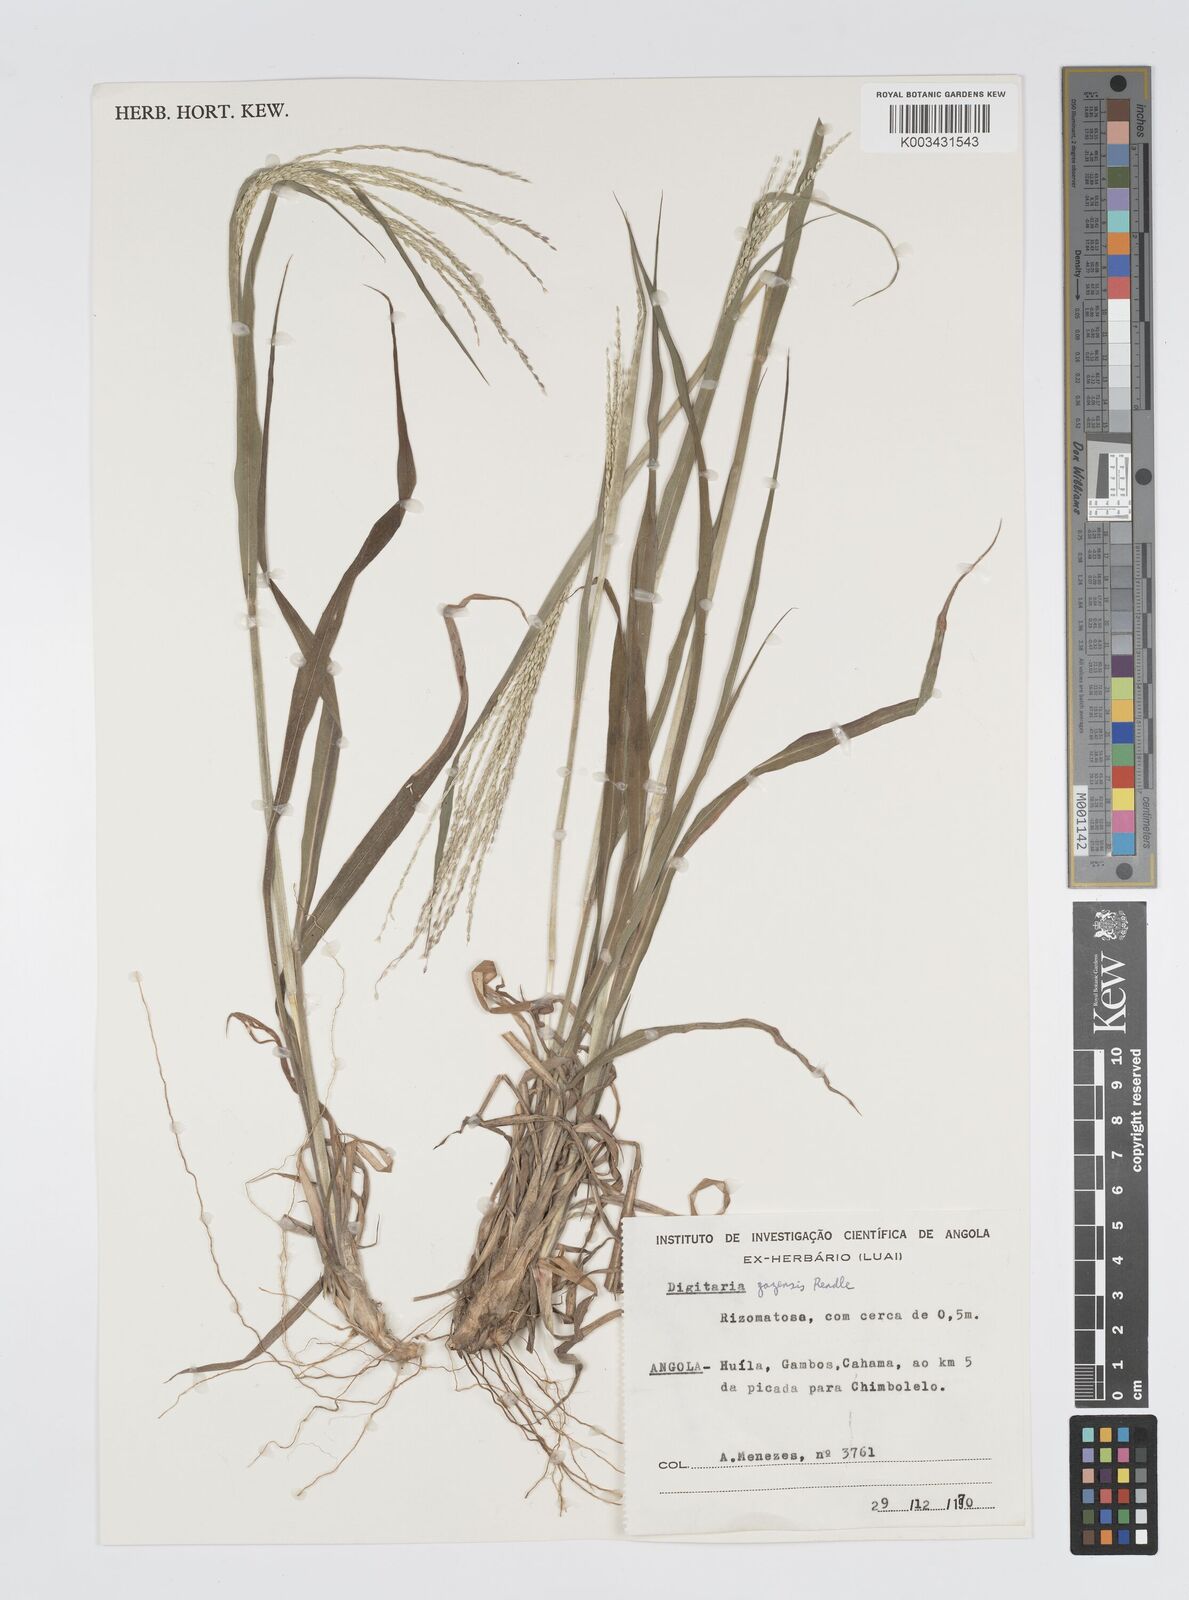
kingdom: Plantae
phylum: Tracheophyta
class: Liliopsida
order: Poales
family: Poaceae
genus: Digitaria
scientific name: Digitaria gazensis
